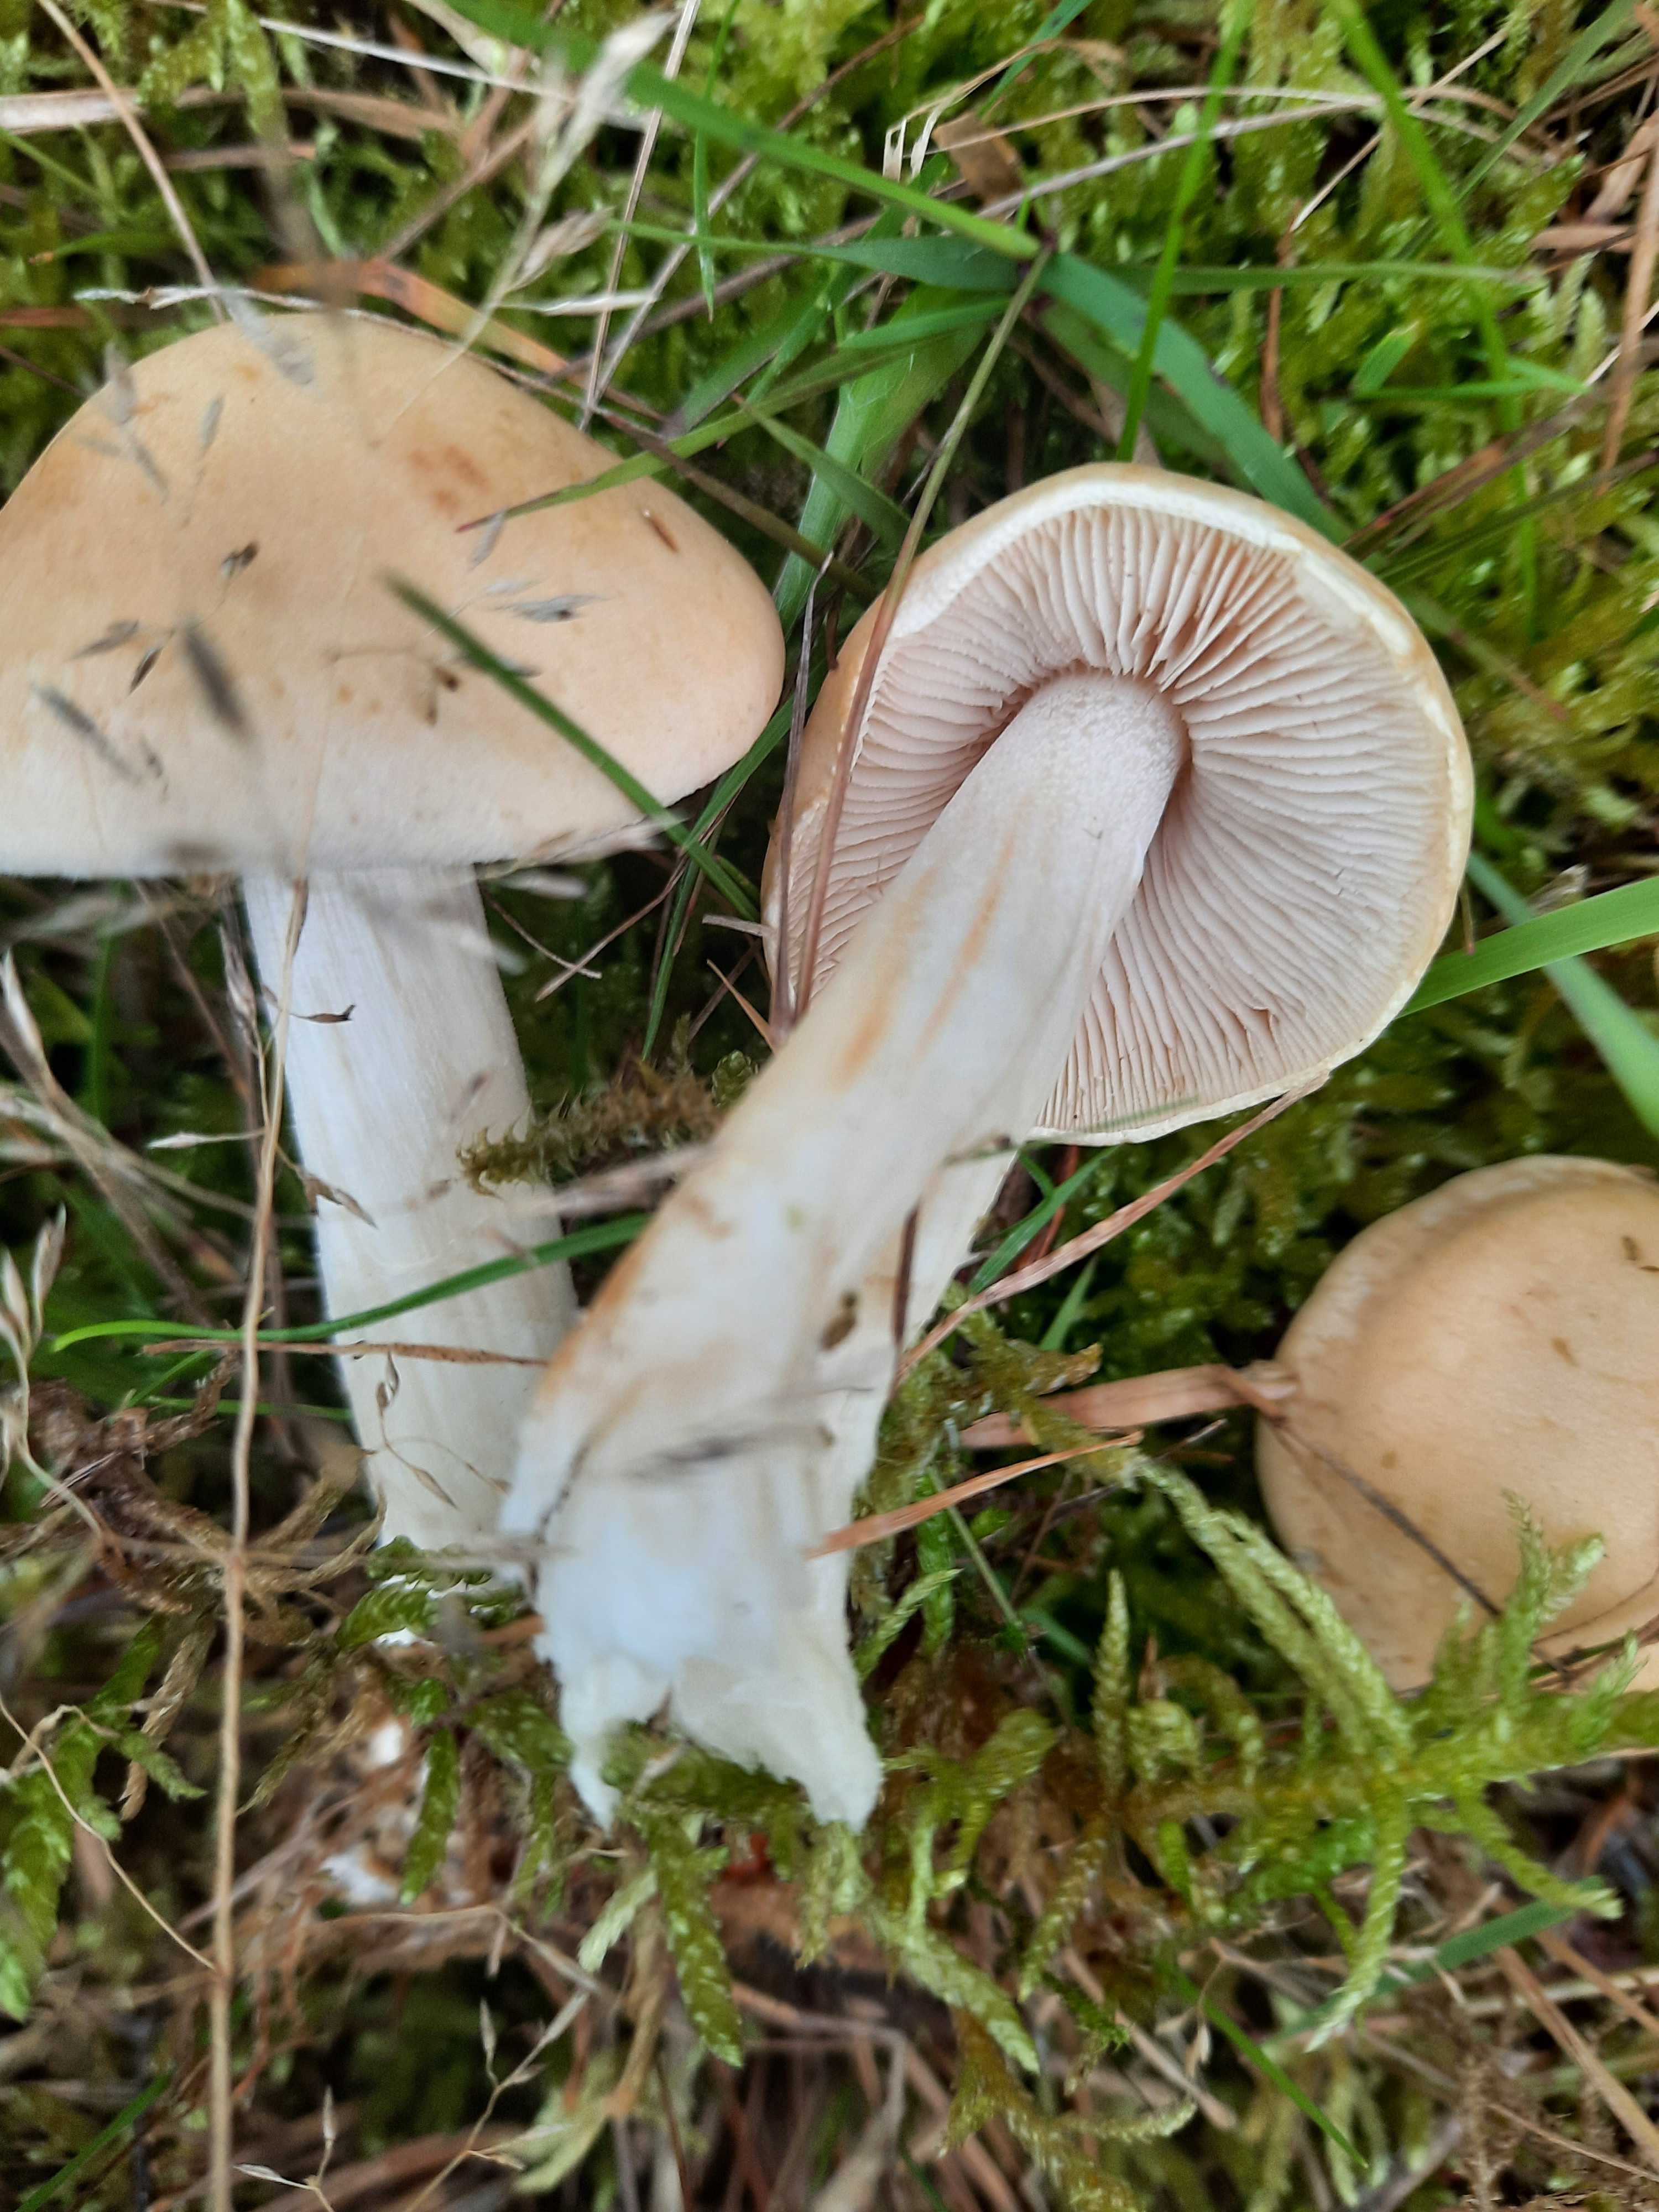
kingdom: Fungi
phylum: Basidiomycota
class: Agaricomycetes
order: Agaricales
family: Hymenogastraceae
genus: Hebeloma
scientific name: Hebeloma
